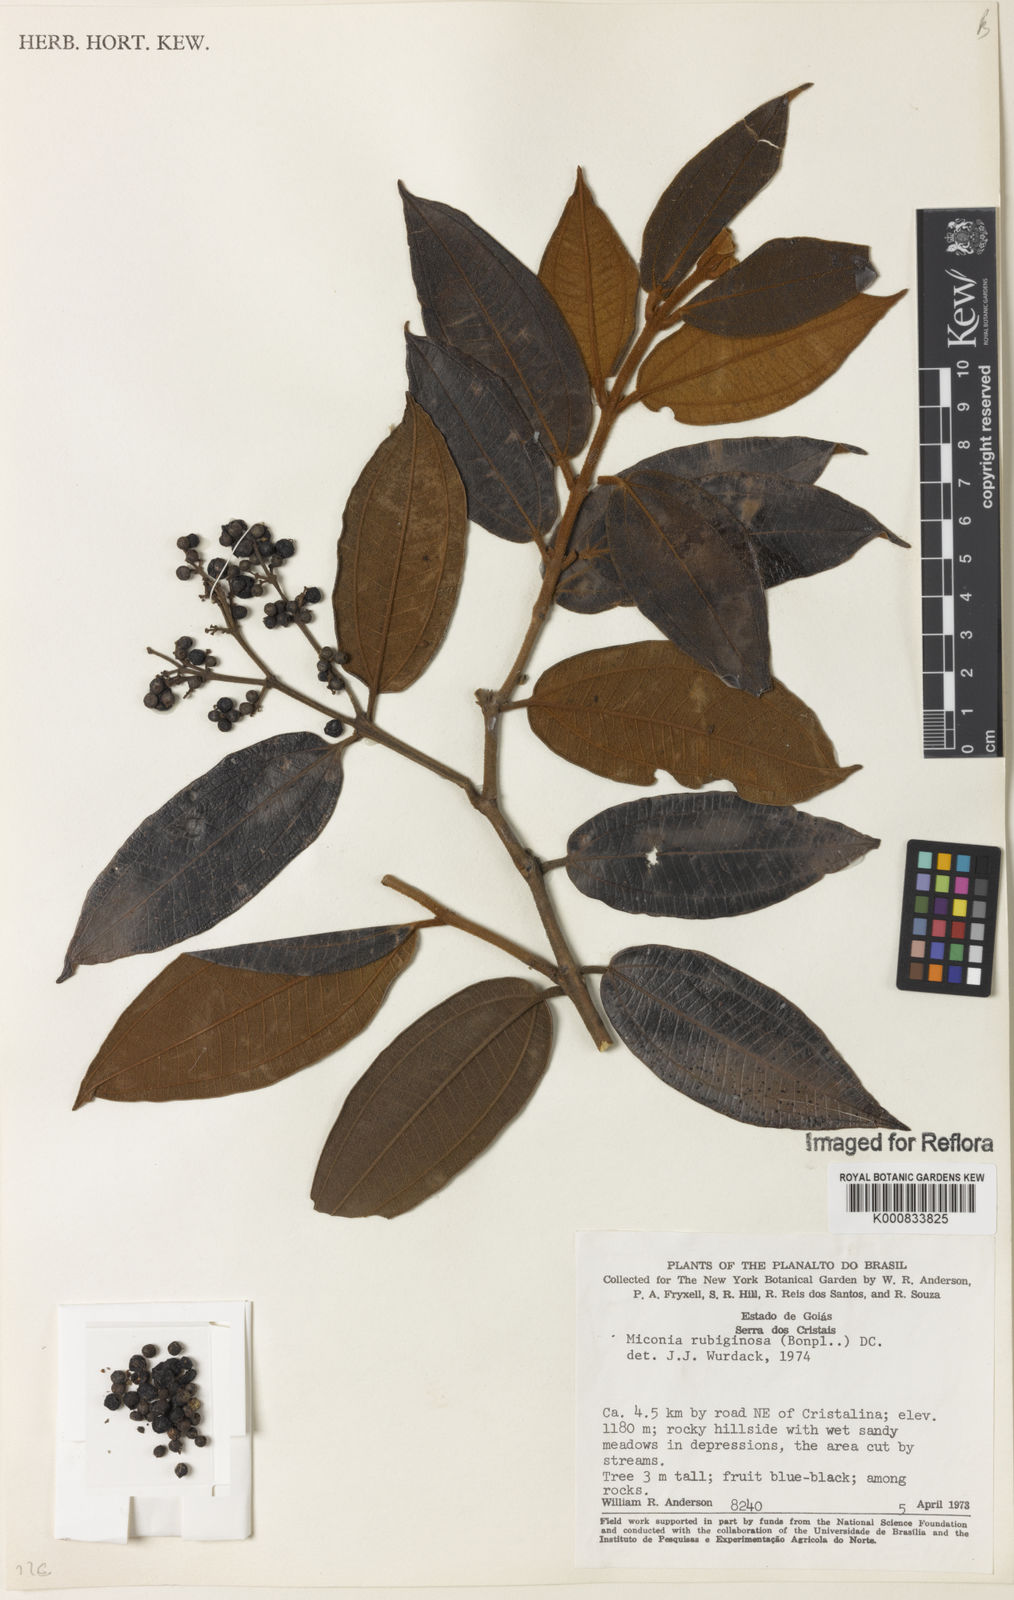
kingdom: Plantae
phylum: Tracheophyta
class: Magnoliopsida
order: Myrtales
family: Melastomataceae
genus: Miconia
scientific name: Miconia rubiginosa
